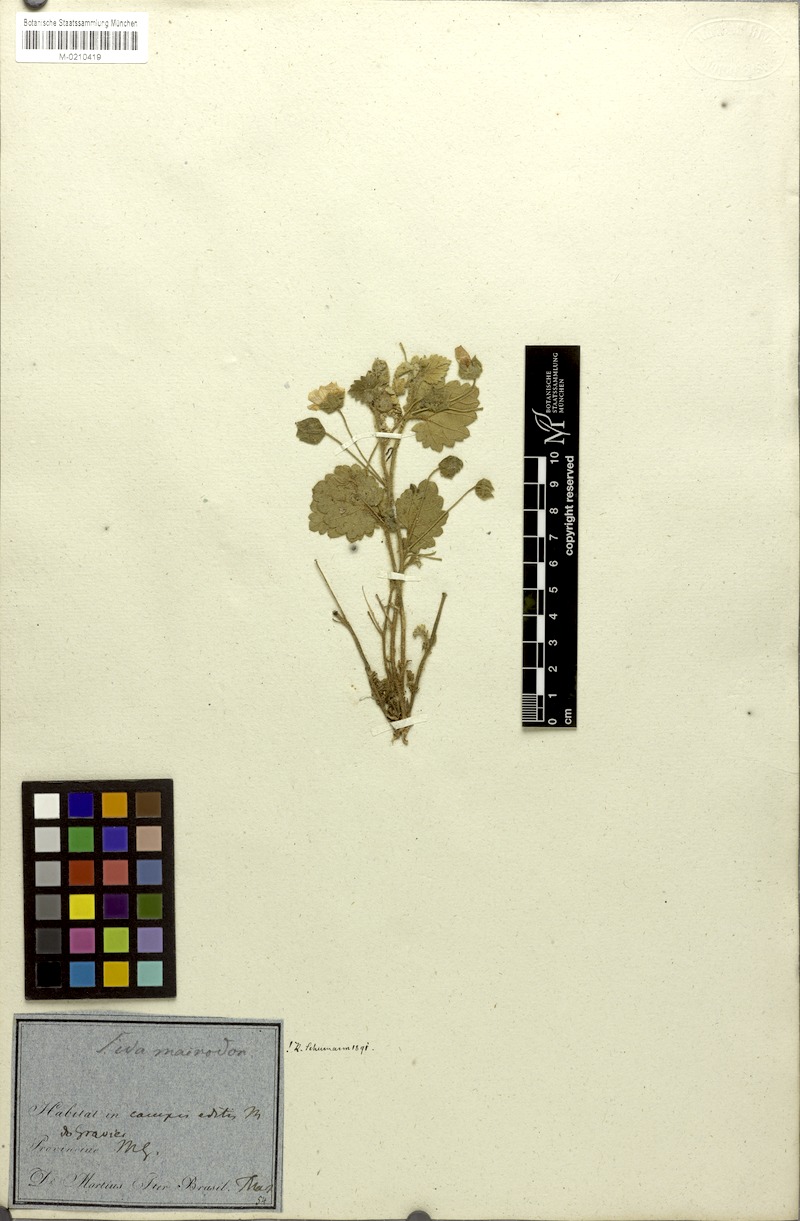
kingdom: Plantae
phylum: Tracheophyta
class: Magnoliopsida
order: Malvales
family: Malvaceae
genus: Krapovickasia
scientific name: Krapovickasia macrodon
